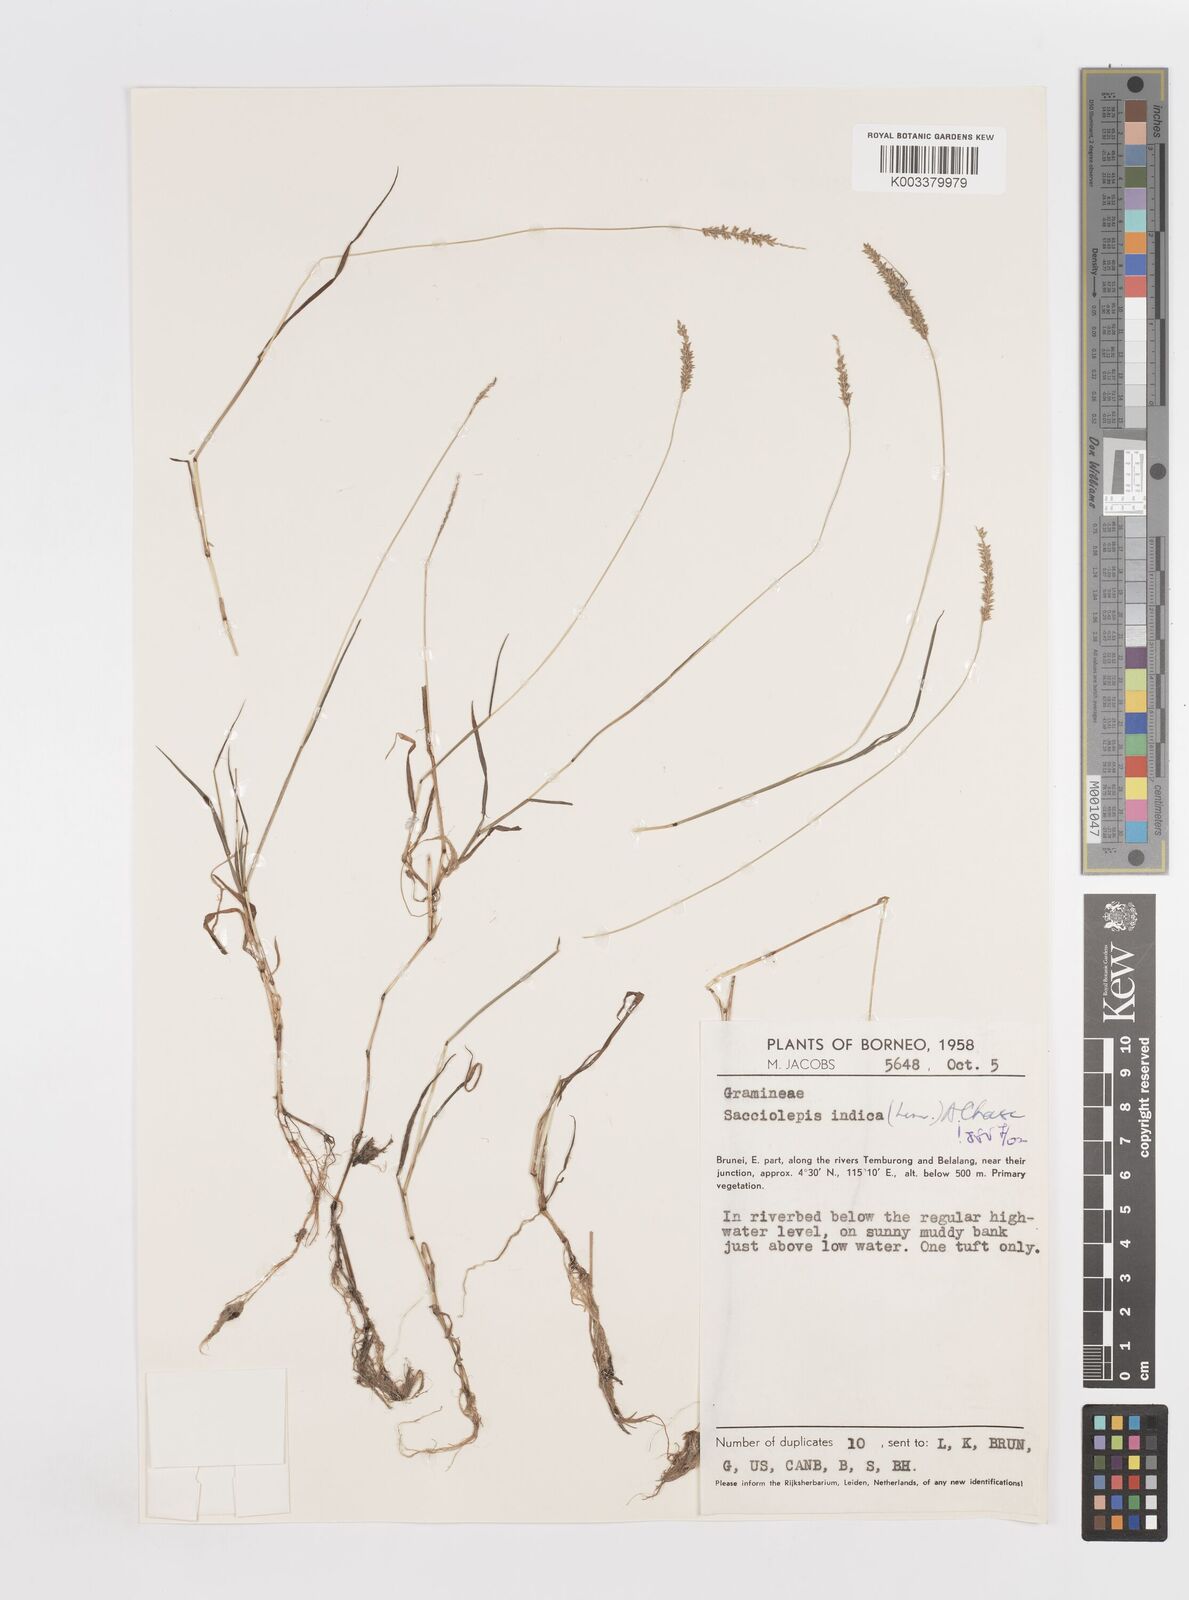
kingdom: Plantae
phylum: Tracheophyta
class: Liliopsida
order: Poales
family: Poaceae
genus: Sacciolepis
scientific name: Sacciolepis indica
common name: Glenwoodgrass
